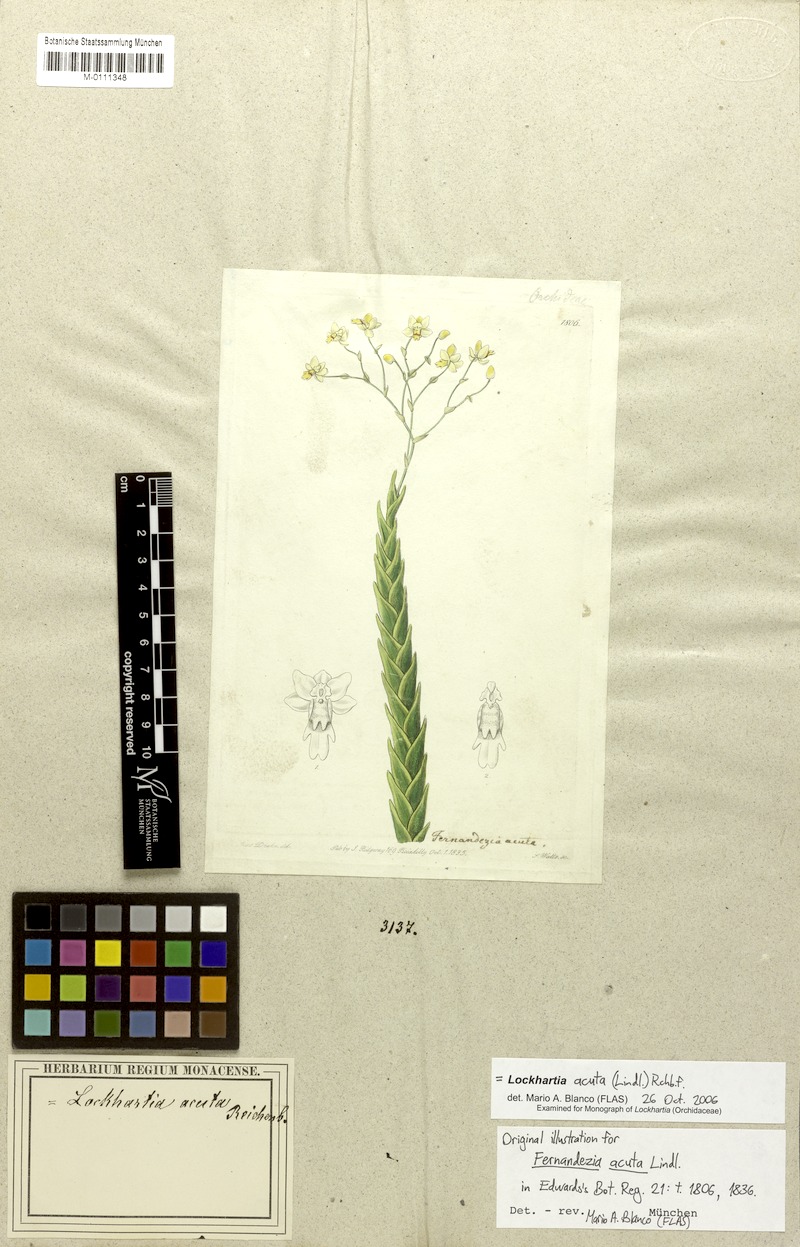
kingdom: Plantae
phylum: Tracheophyta
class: Liliopsida
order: Asparagales
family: Orchidaceae
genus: Lockhartia
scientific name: Lockhartia acuta
